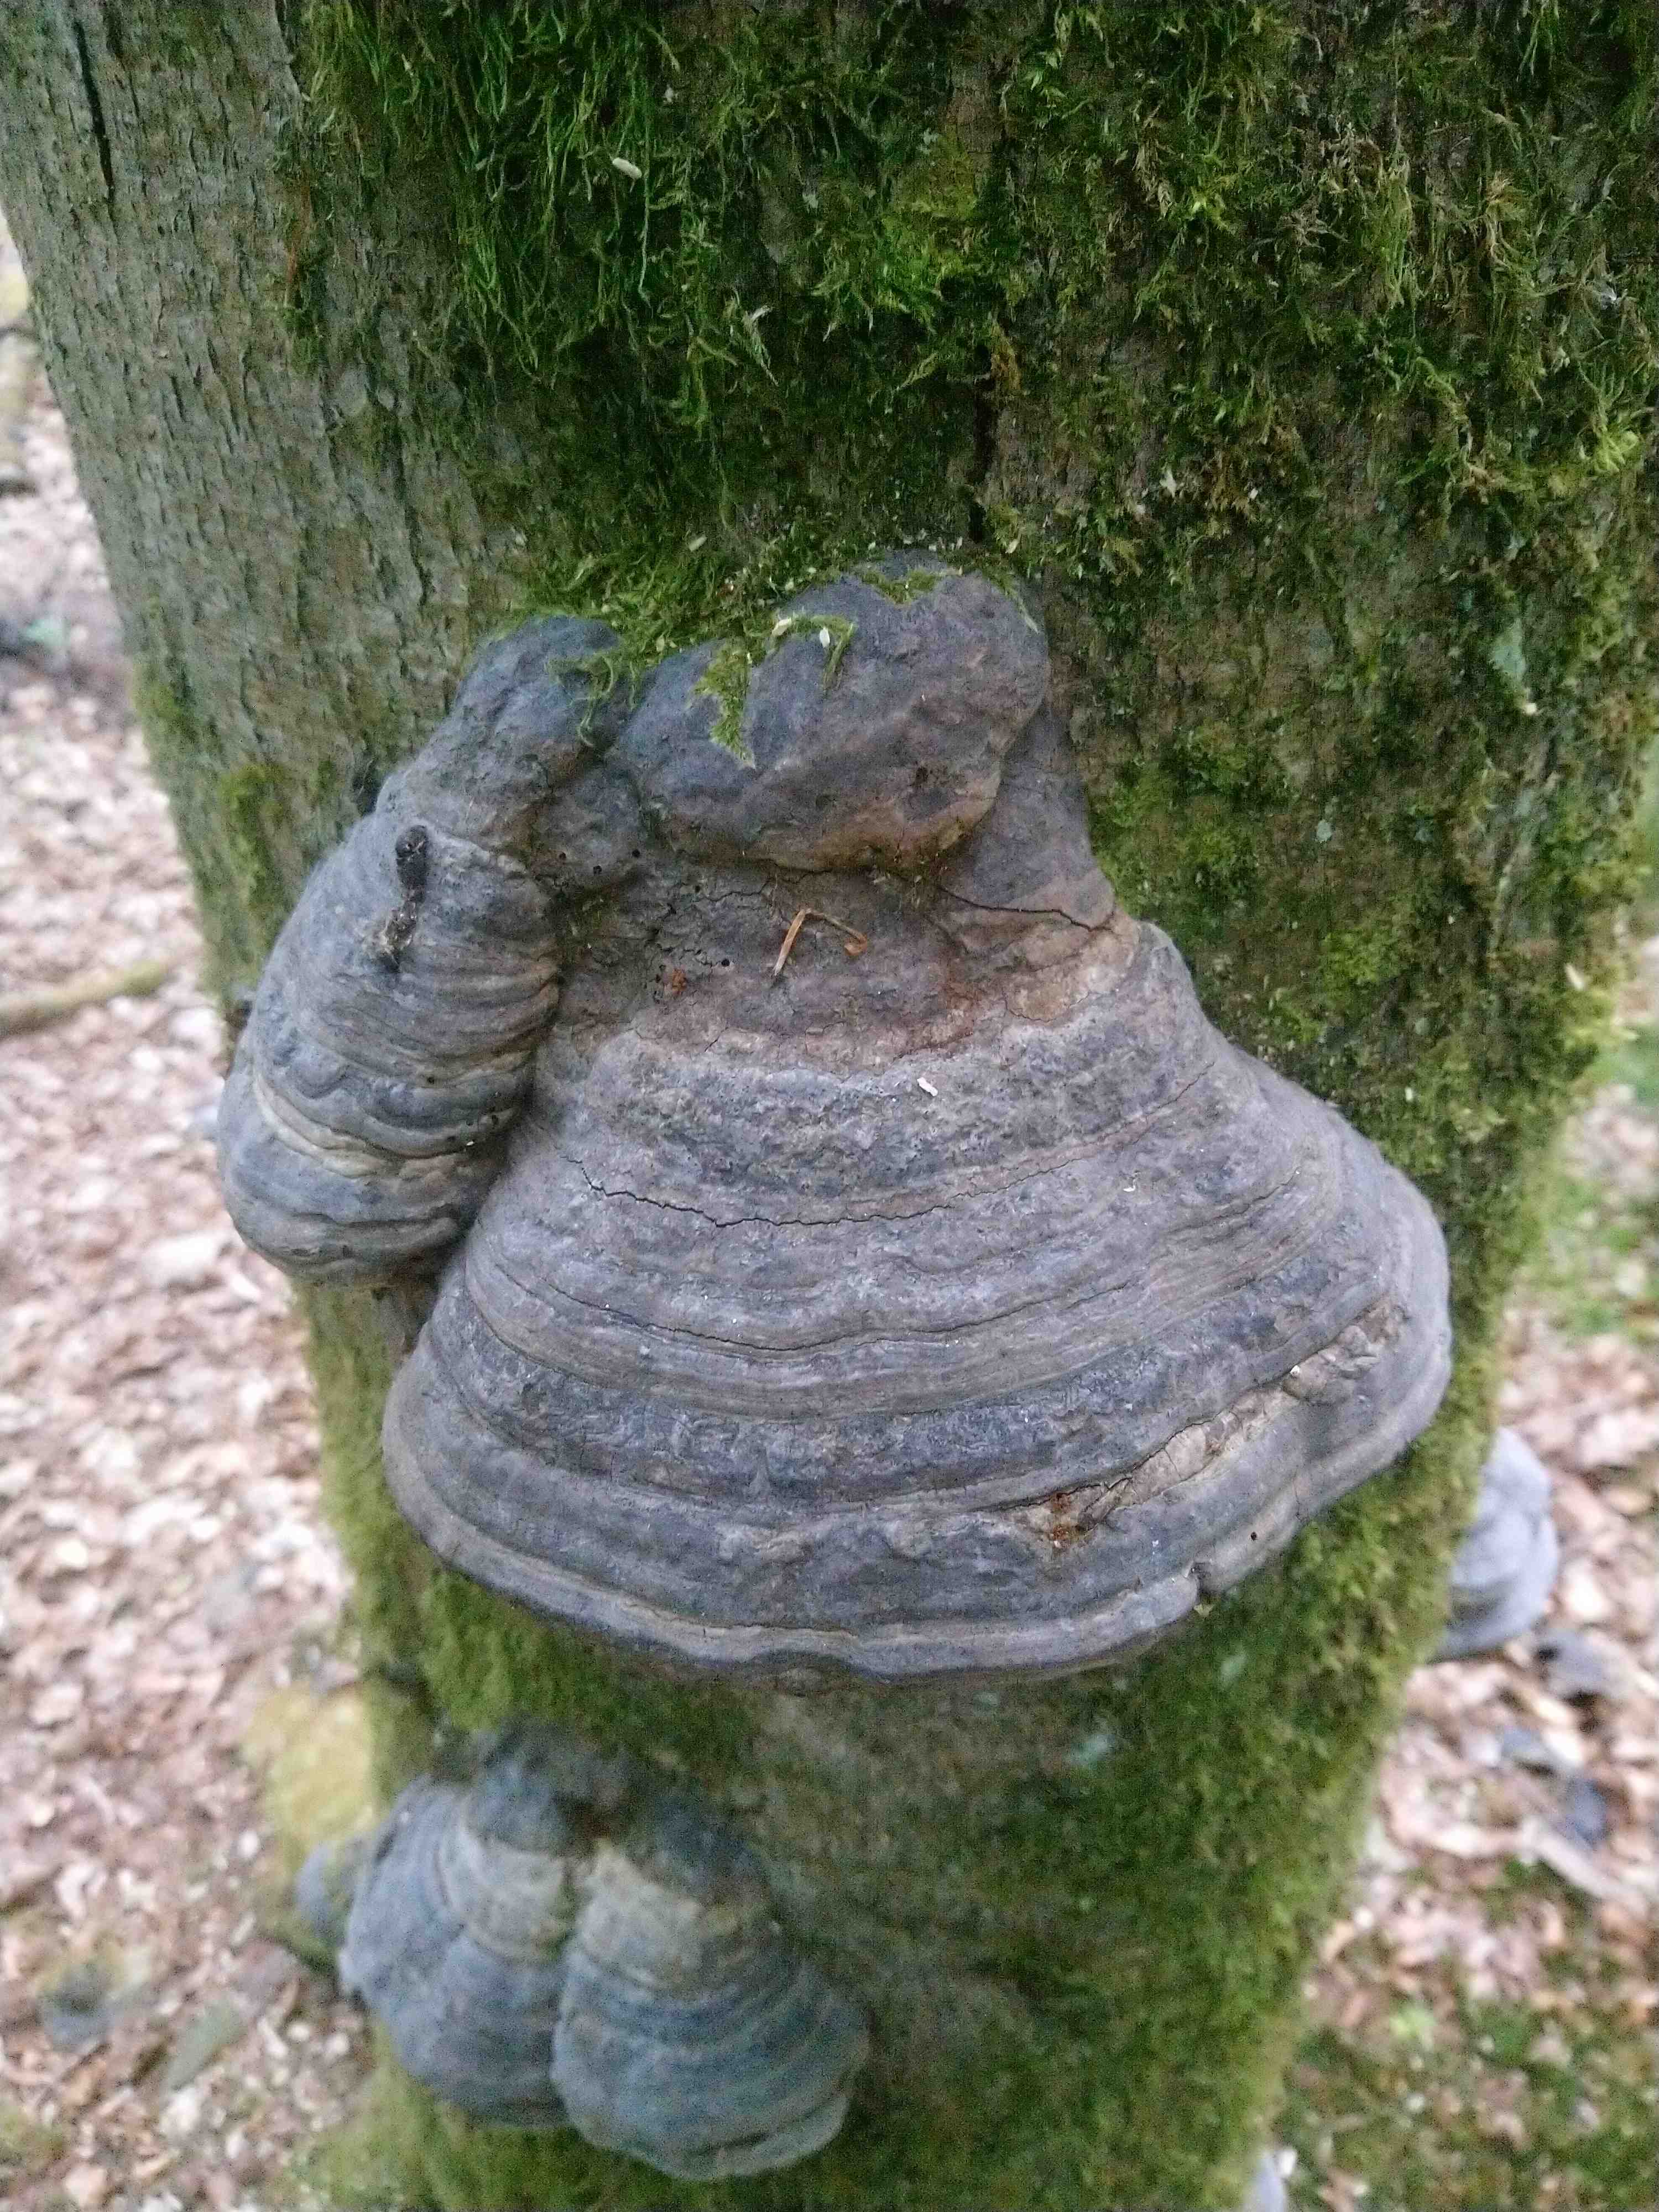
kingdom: Fungi
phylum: Basidiomycota
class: Agaricomycetes
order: Polyporales
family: Polyporaceae
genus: Fomes
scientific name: Fomes fomentarius
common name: tøndersvamp
